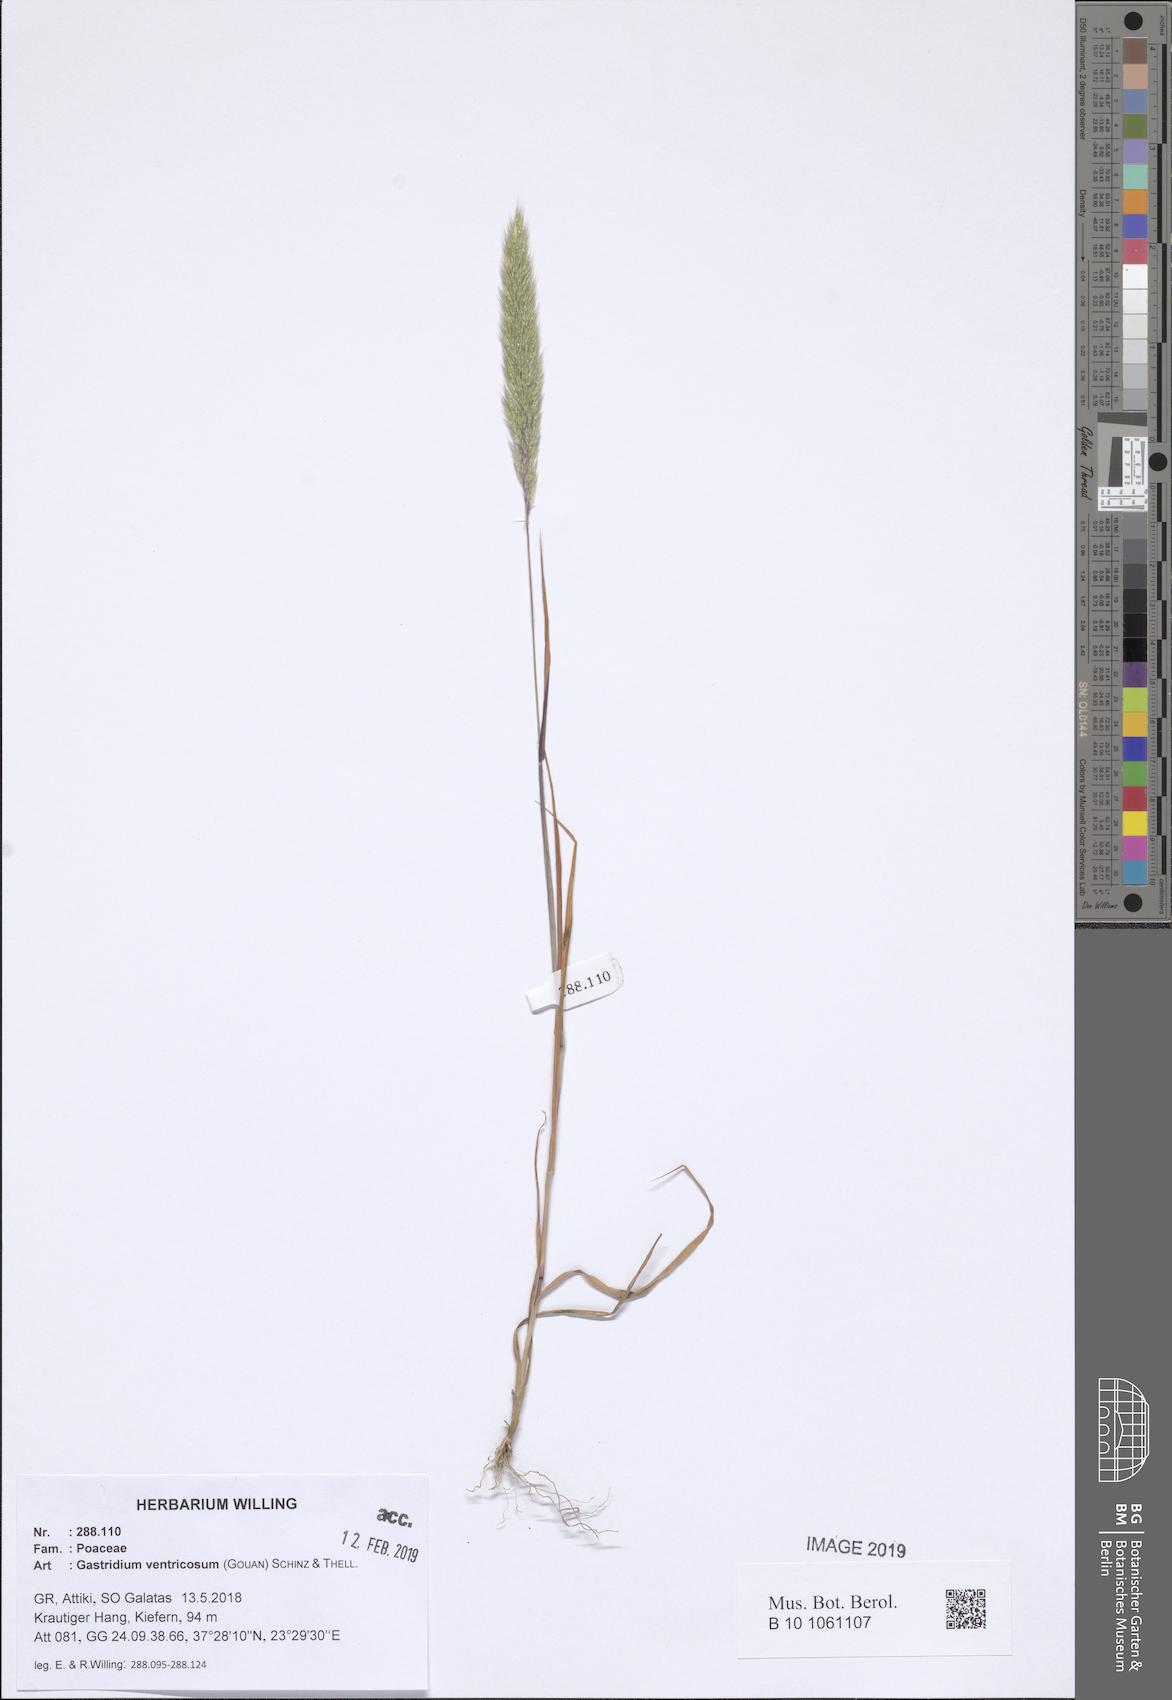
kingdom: Plantae
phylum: Tracheophyta
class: Liliopsida
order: Poales
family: Poaceae
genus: Gastridium
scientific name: Gastridium ventricosum
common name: Nit-grass
